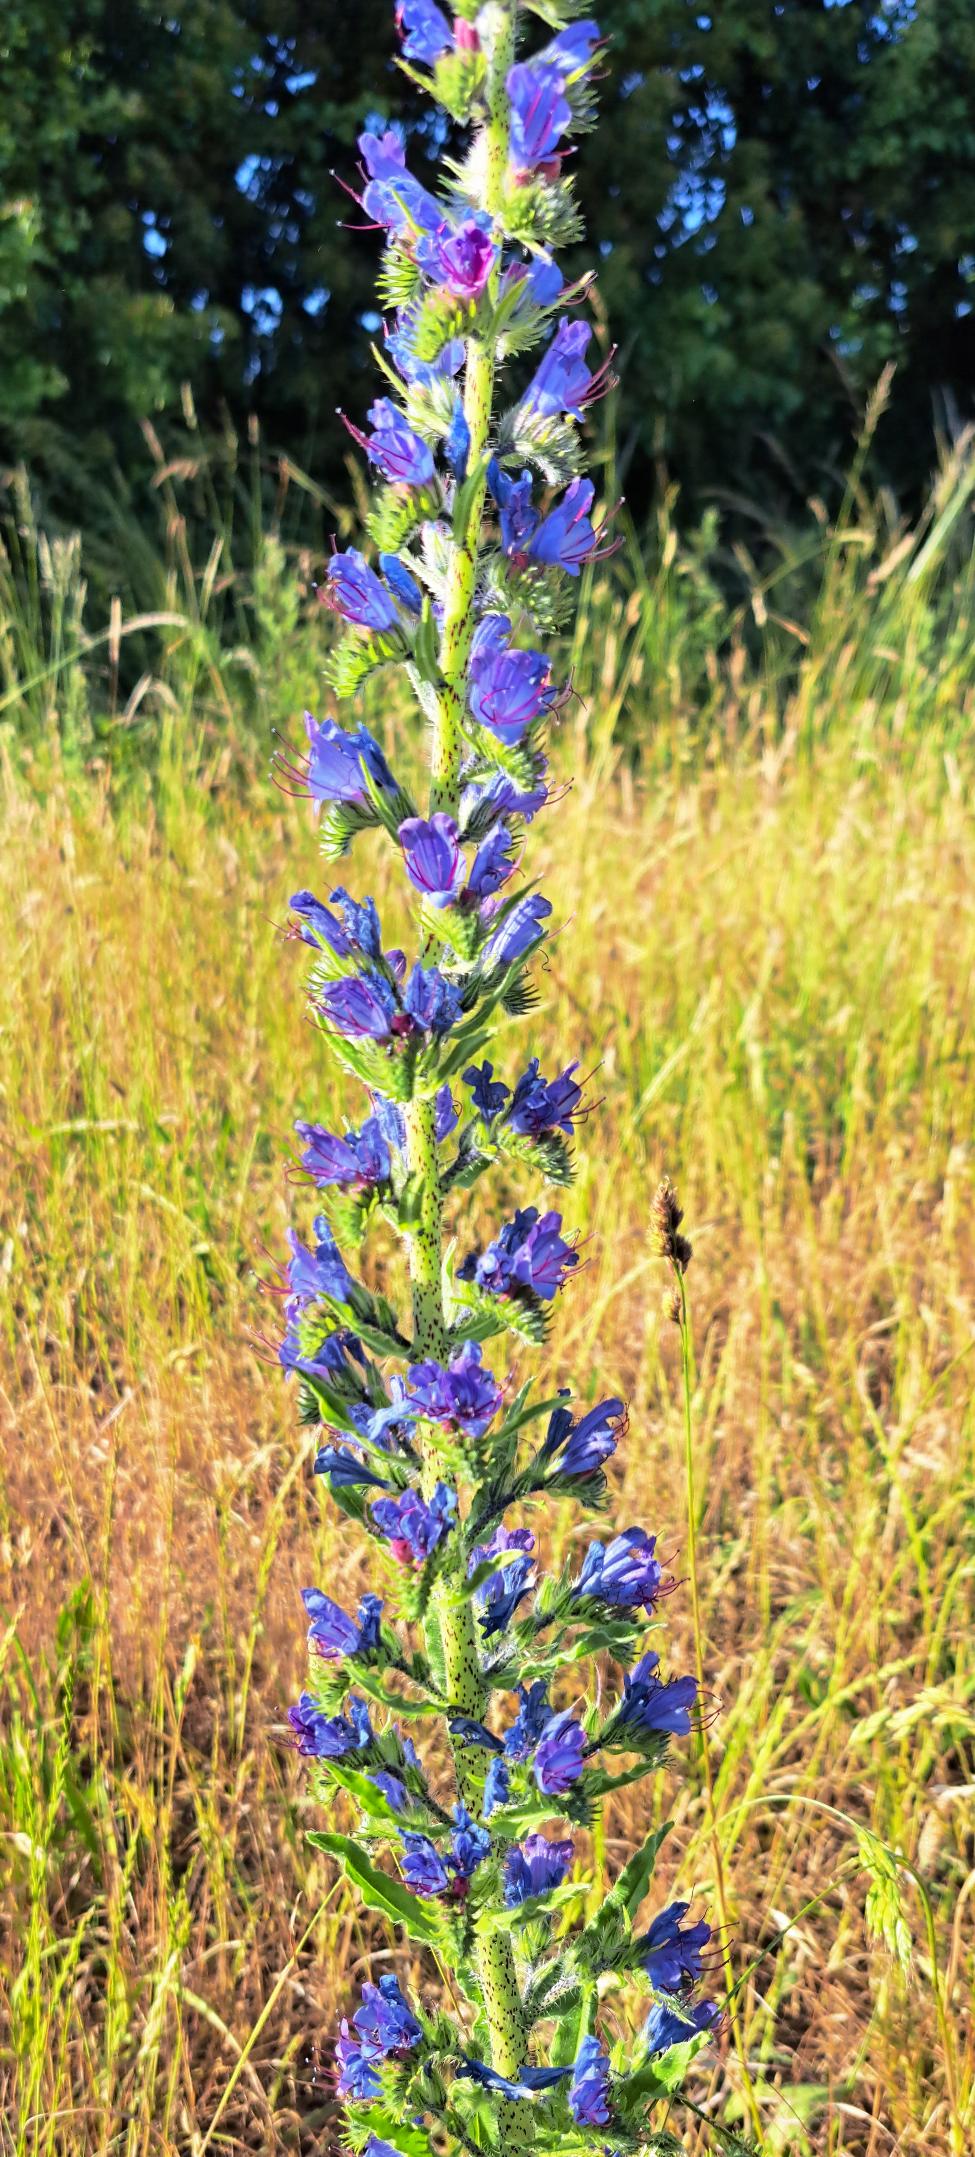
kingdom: Plantae
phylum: Tracheophyta
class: Magnoliopsida
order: Boraginales
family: Boraginaceae
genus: Echium
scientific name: Echium vulgare
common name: Slangehoved
